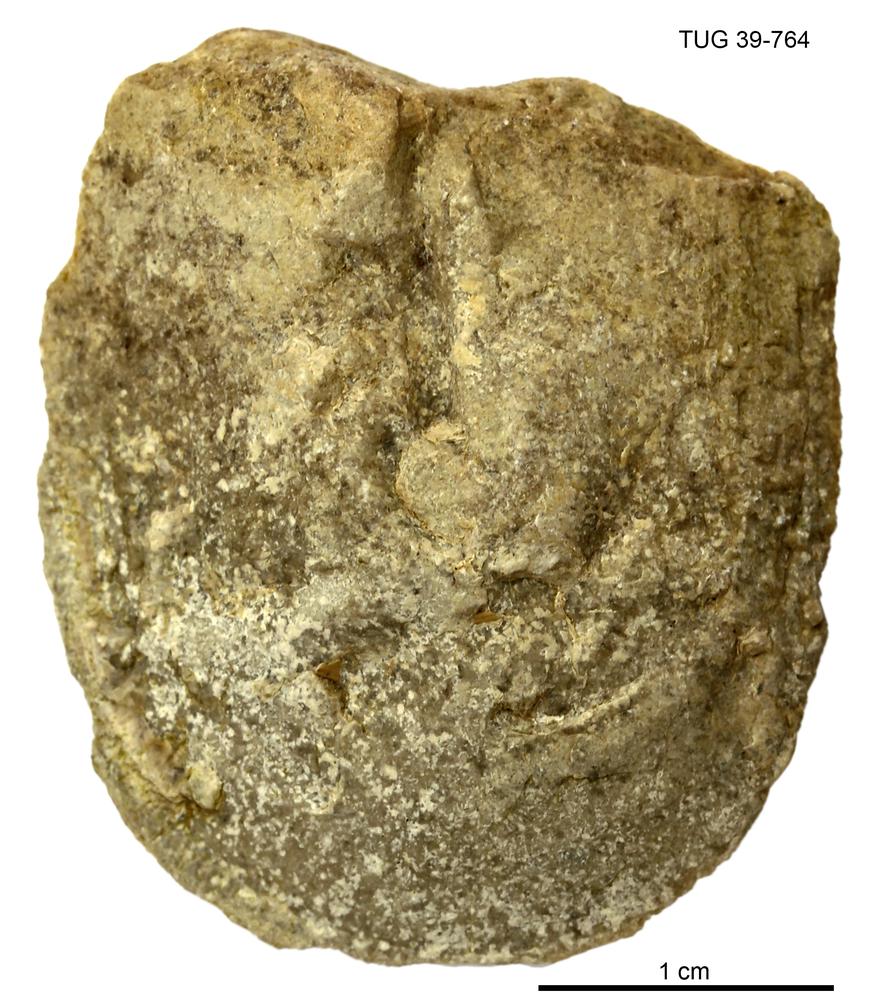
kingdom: Animalia
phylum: Brachiopoda
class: Lingulata
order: Lingulida
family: Pseudolingulidae
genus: Pseudolingula
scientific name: Pseudolingula Crania quadrata
